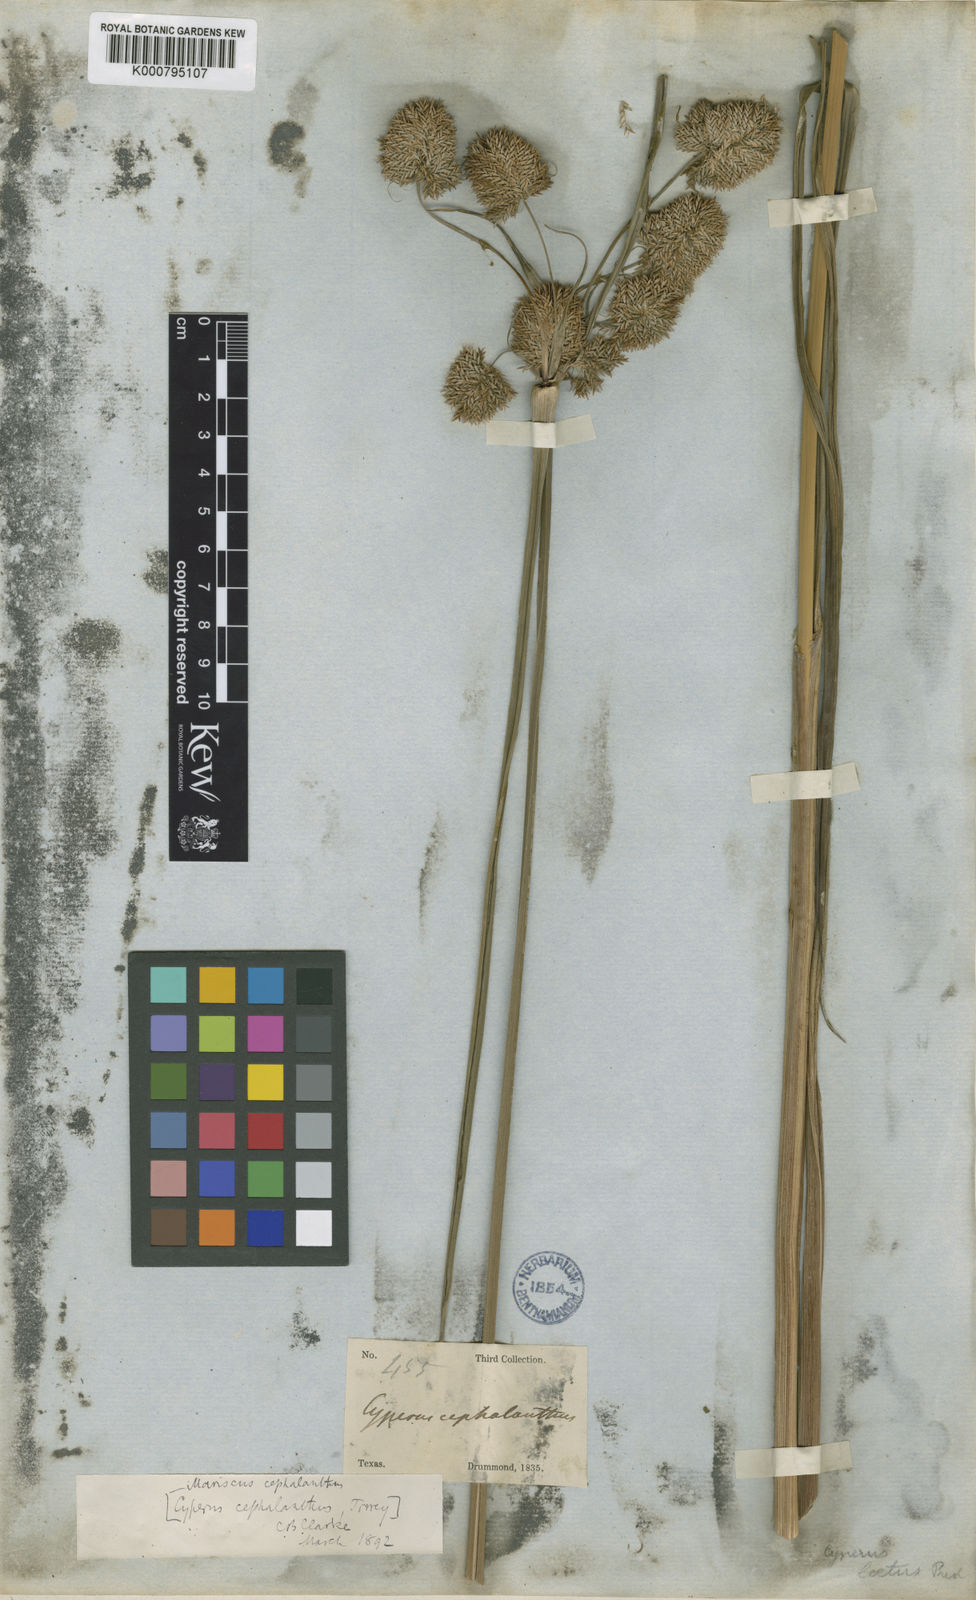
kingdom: Plantae
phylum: Tracheophyta
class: Liliopsida
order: Poales
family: Cyperaceae
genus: Cyperus
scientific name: Cyperus cephalanthus
